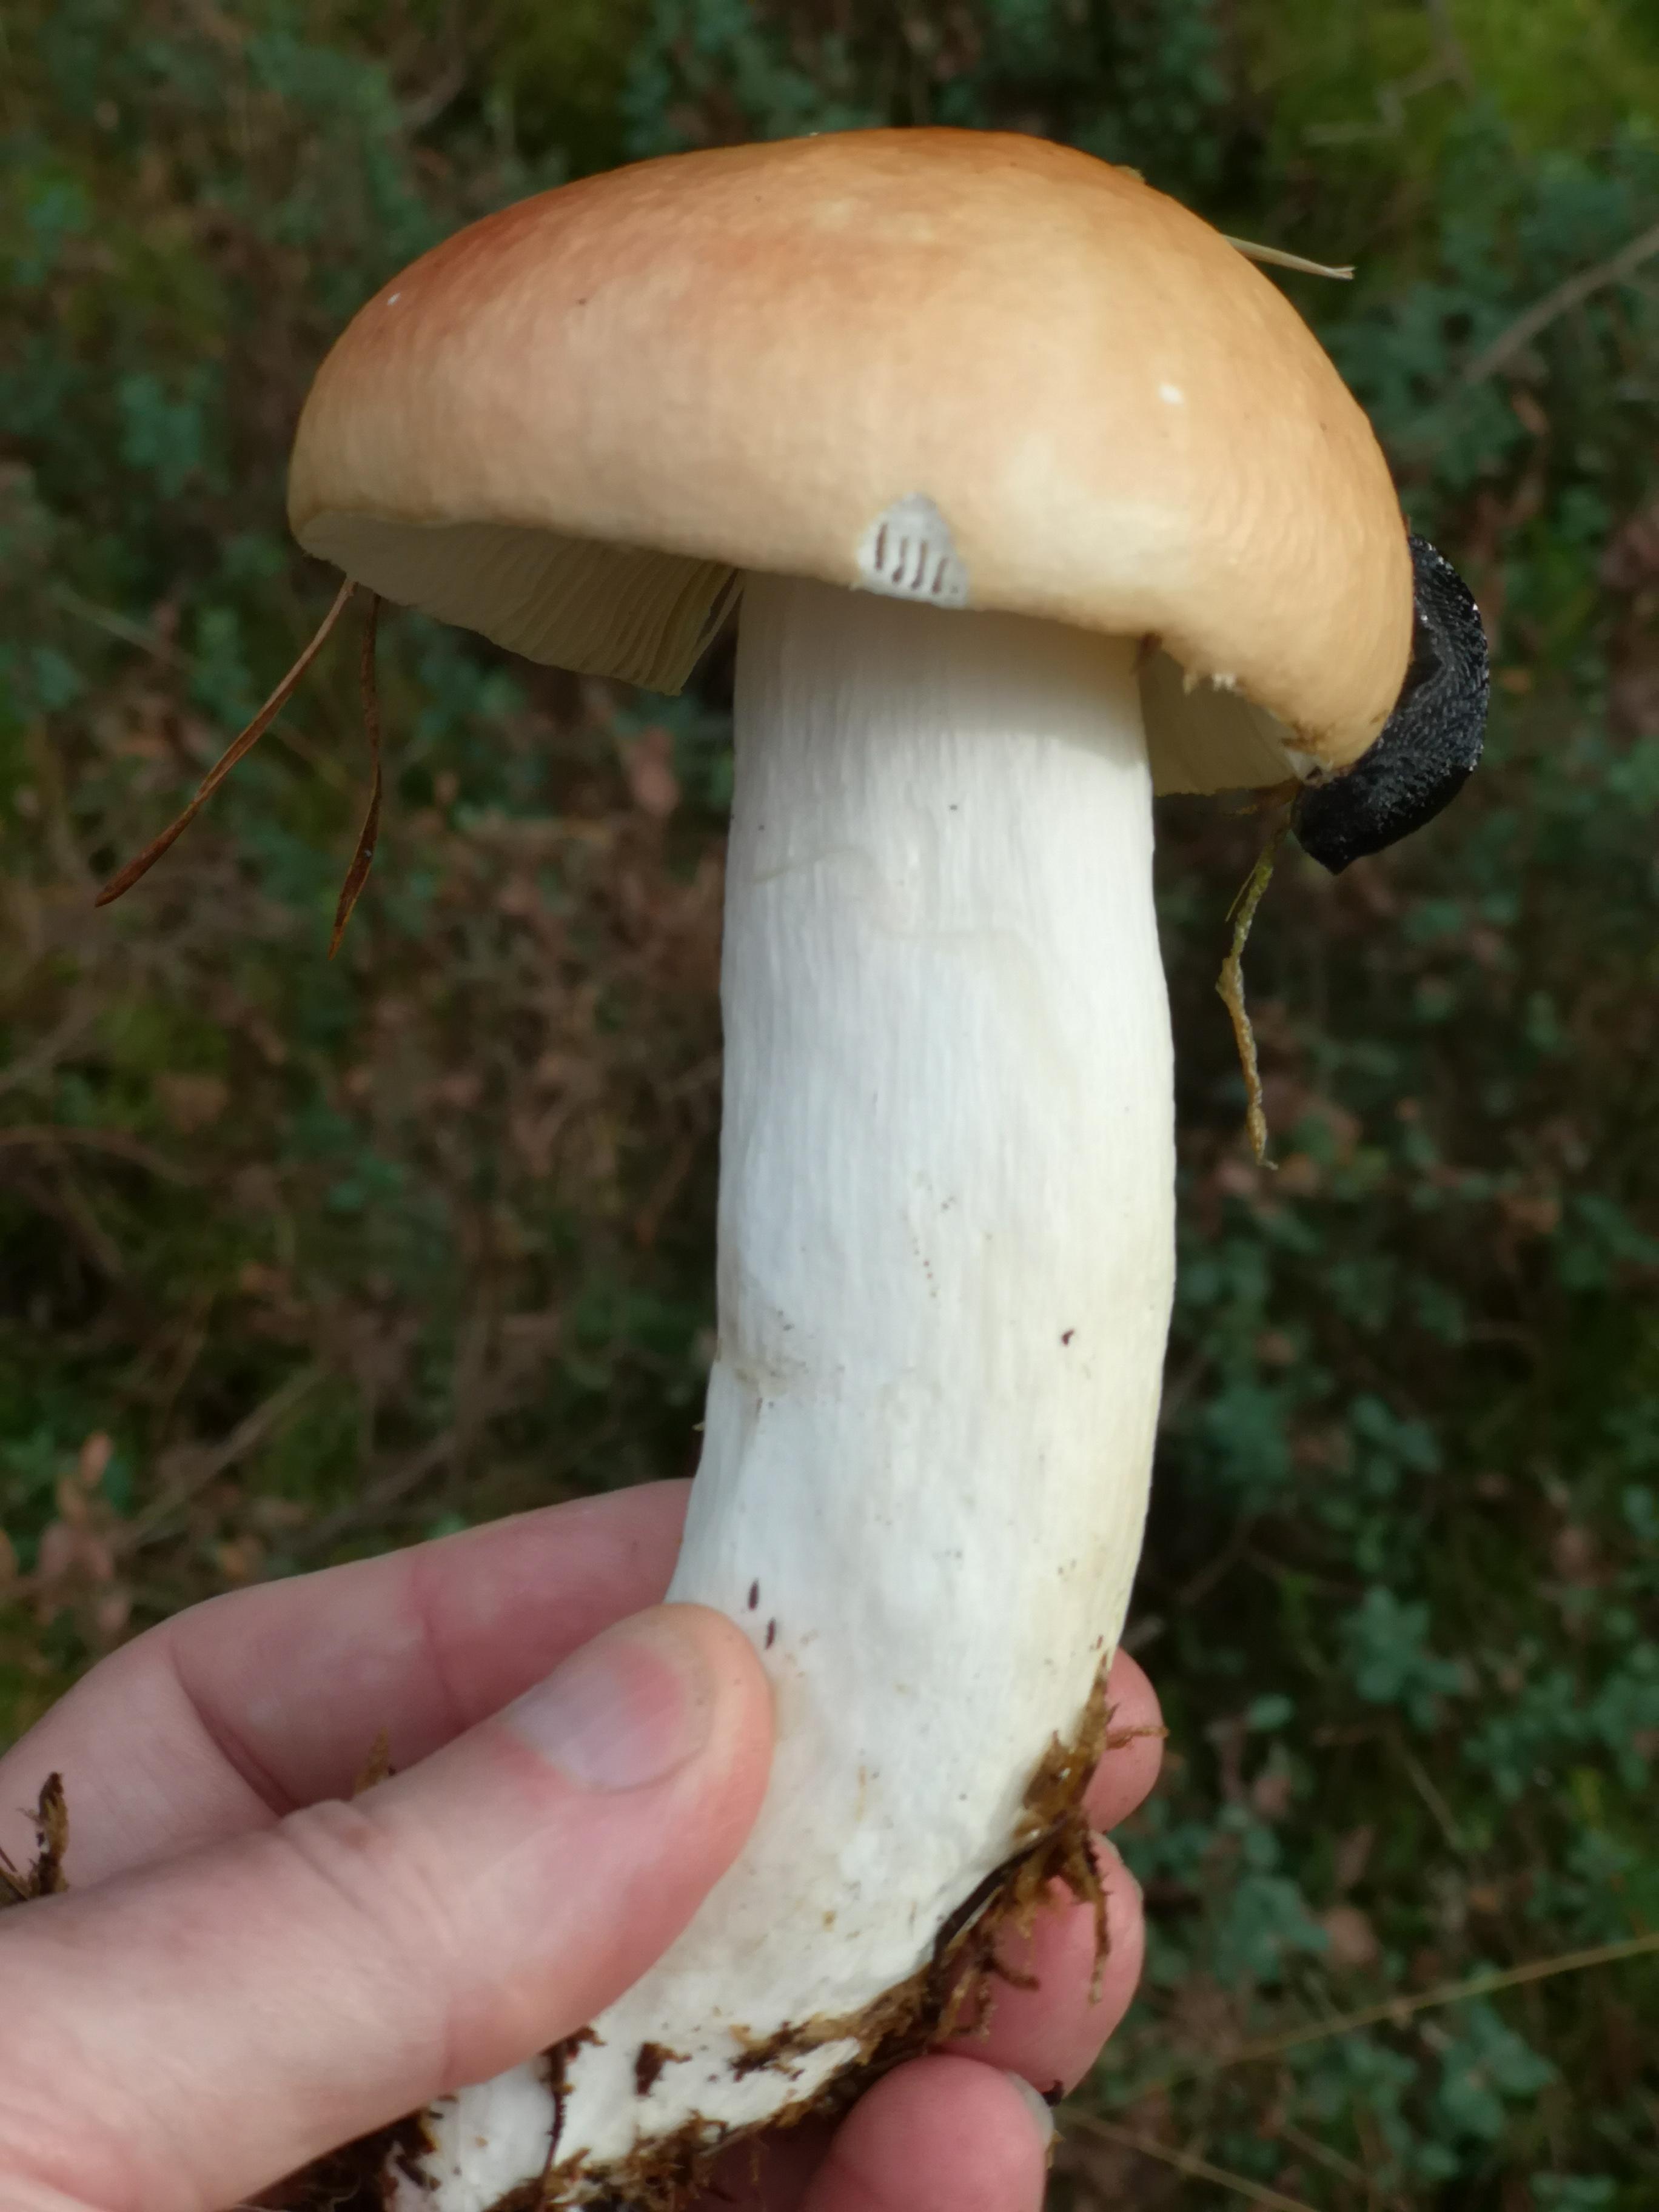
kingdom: Fungi
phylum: Basidiomycota
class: Agaricomycetes
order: Russulales
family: Russulaceae
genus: Russula
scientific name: Russula decolorans
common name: afblegende skørhat
